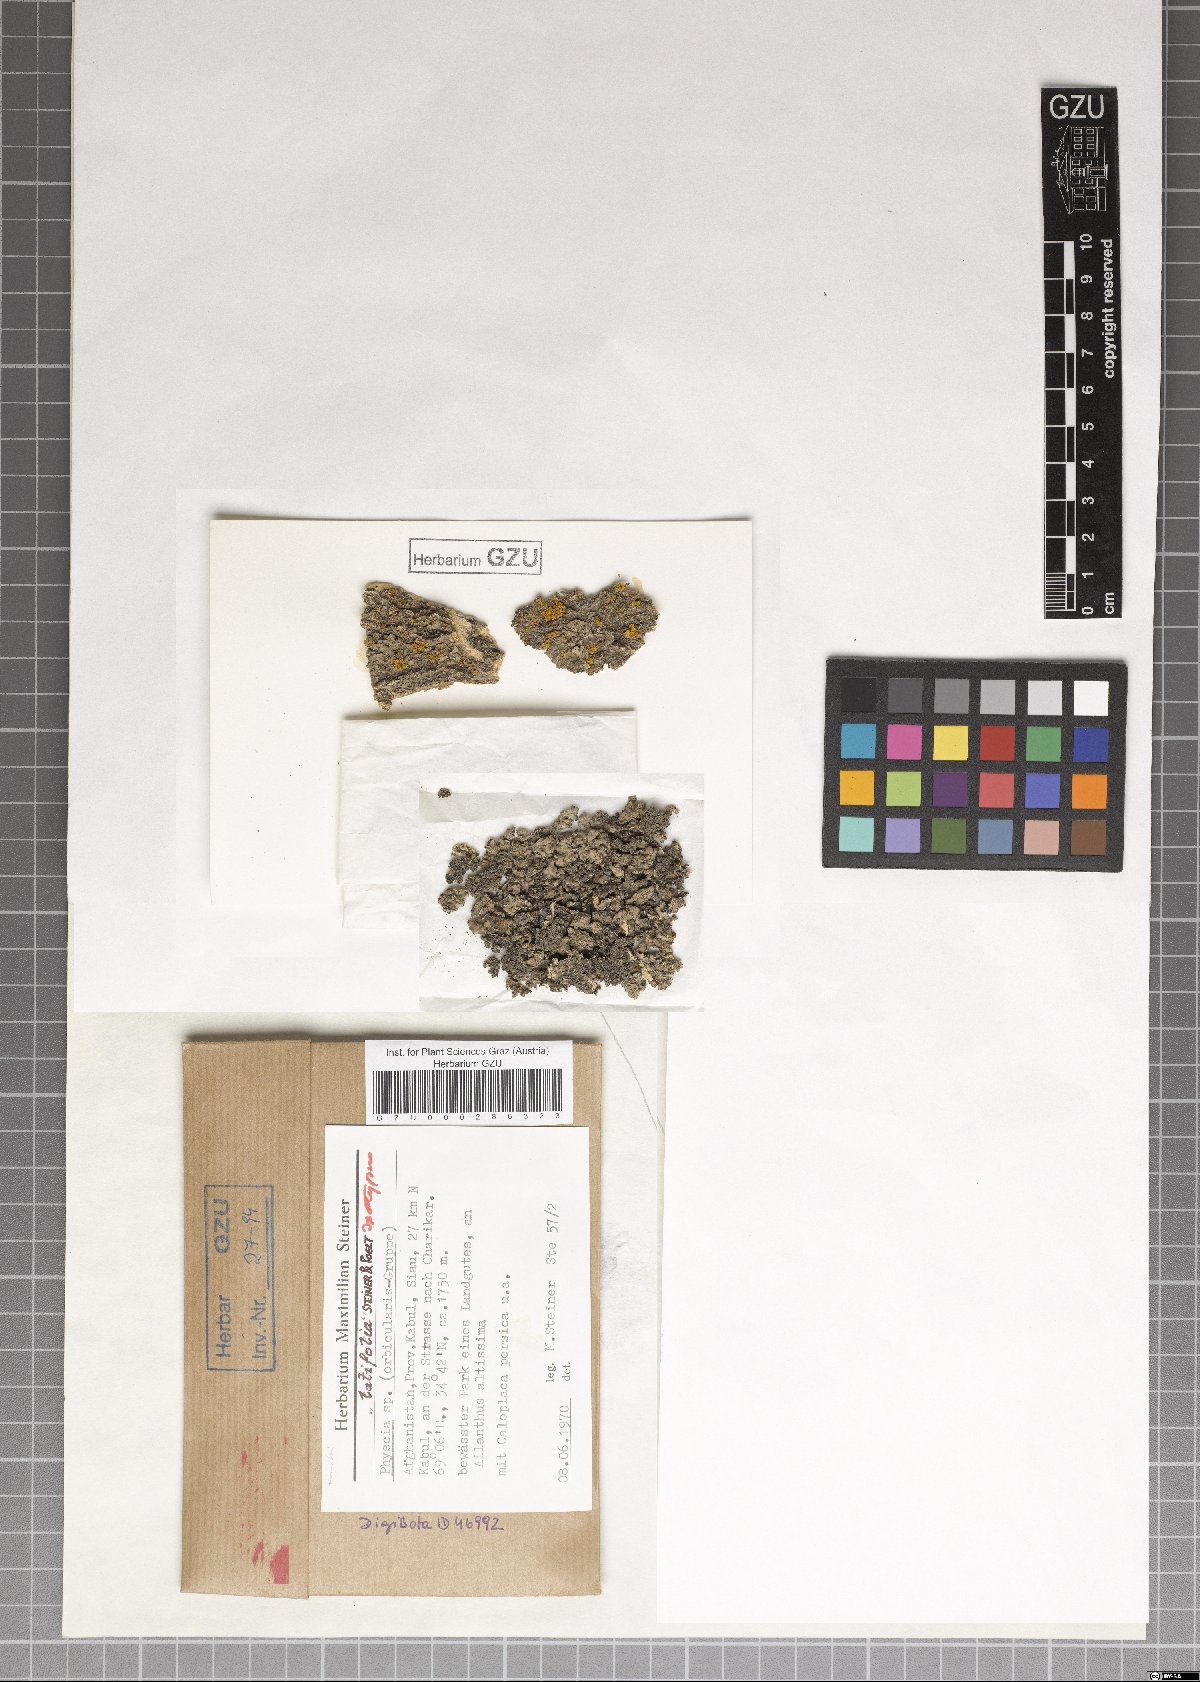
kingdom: Fungi
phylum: Ascomycota
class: Lecanoromycetes
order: Caliciales
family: Physciaceae
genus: Physcia
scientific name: Physcia
